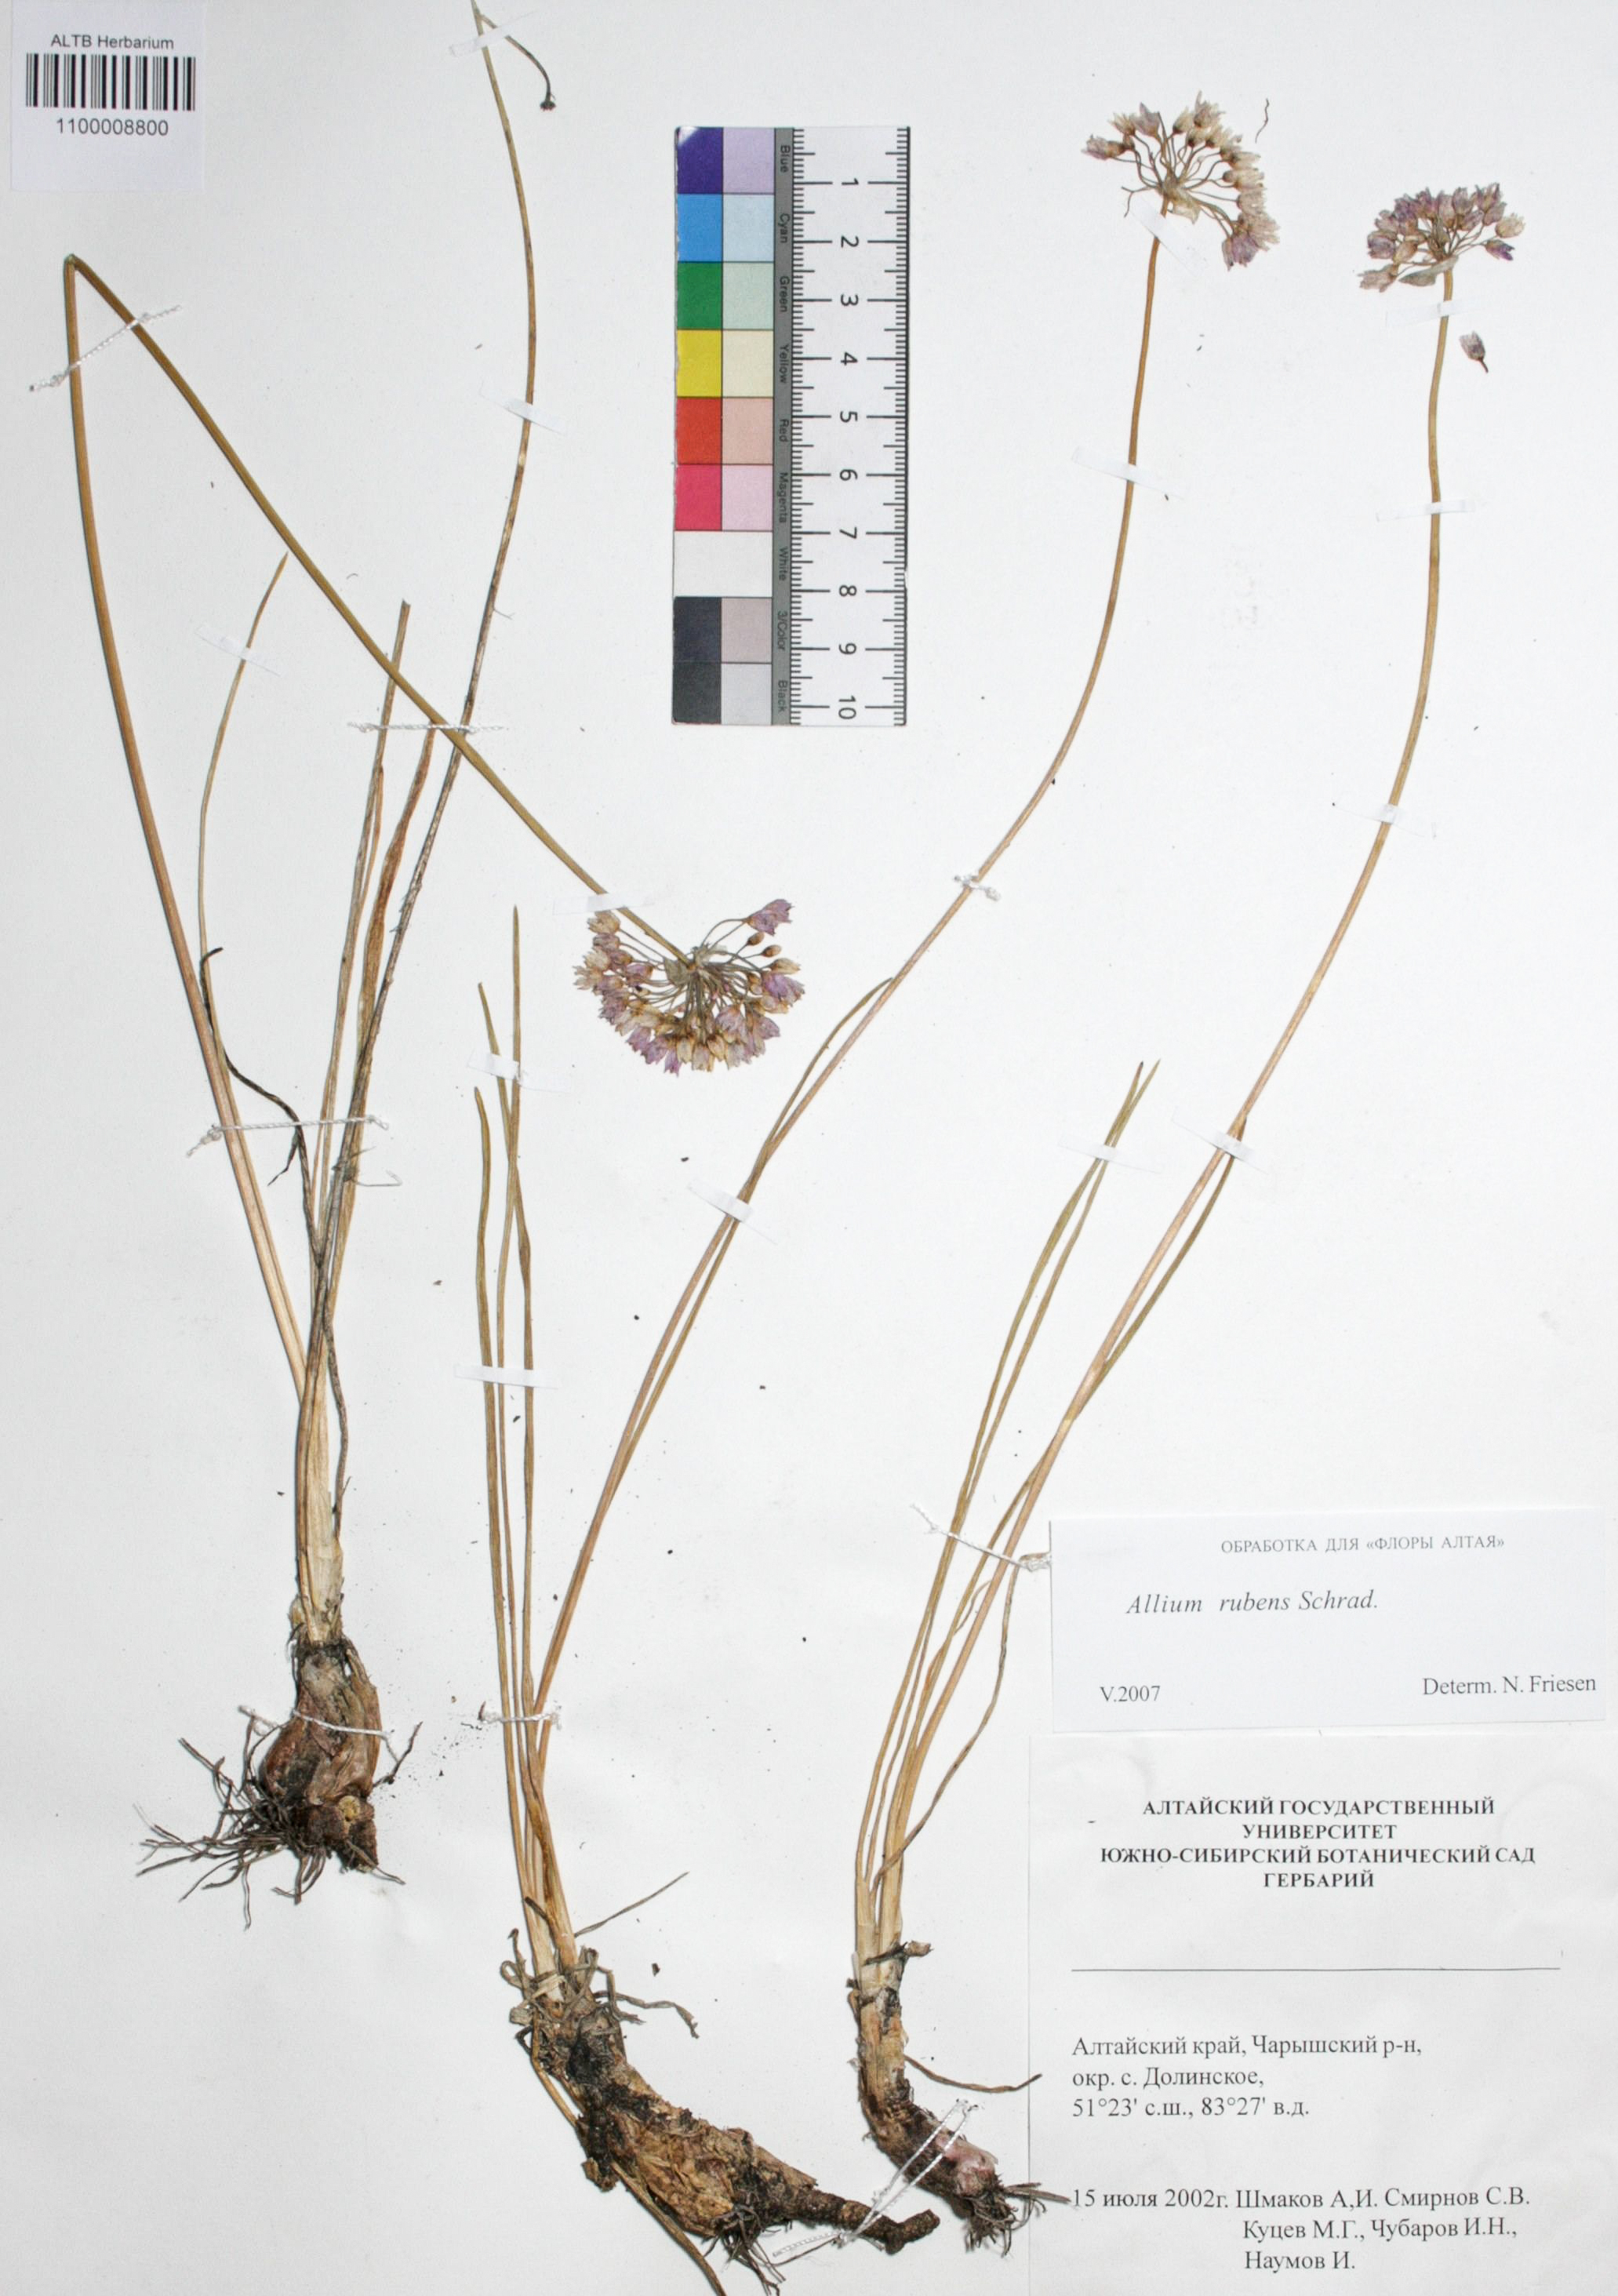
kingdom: Plantae
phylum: Tracheophyta
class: Liliopsida
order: Asparagales
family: Amaryllidaceae
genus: Allium
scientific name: Allium rubens
